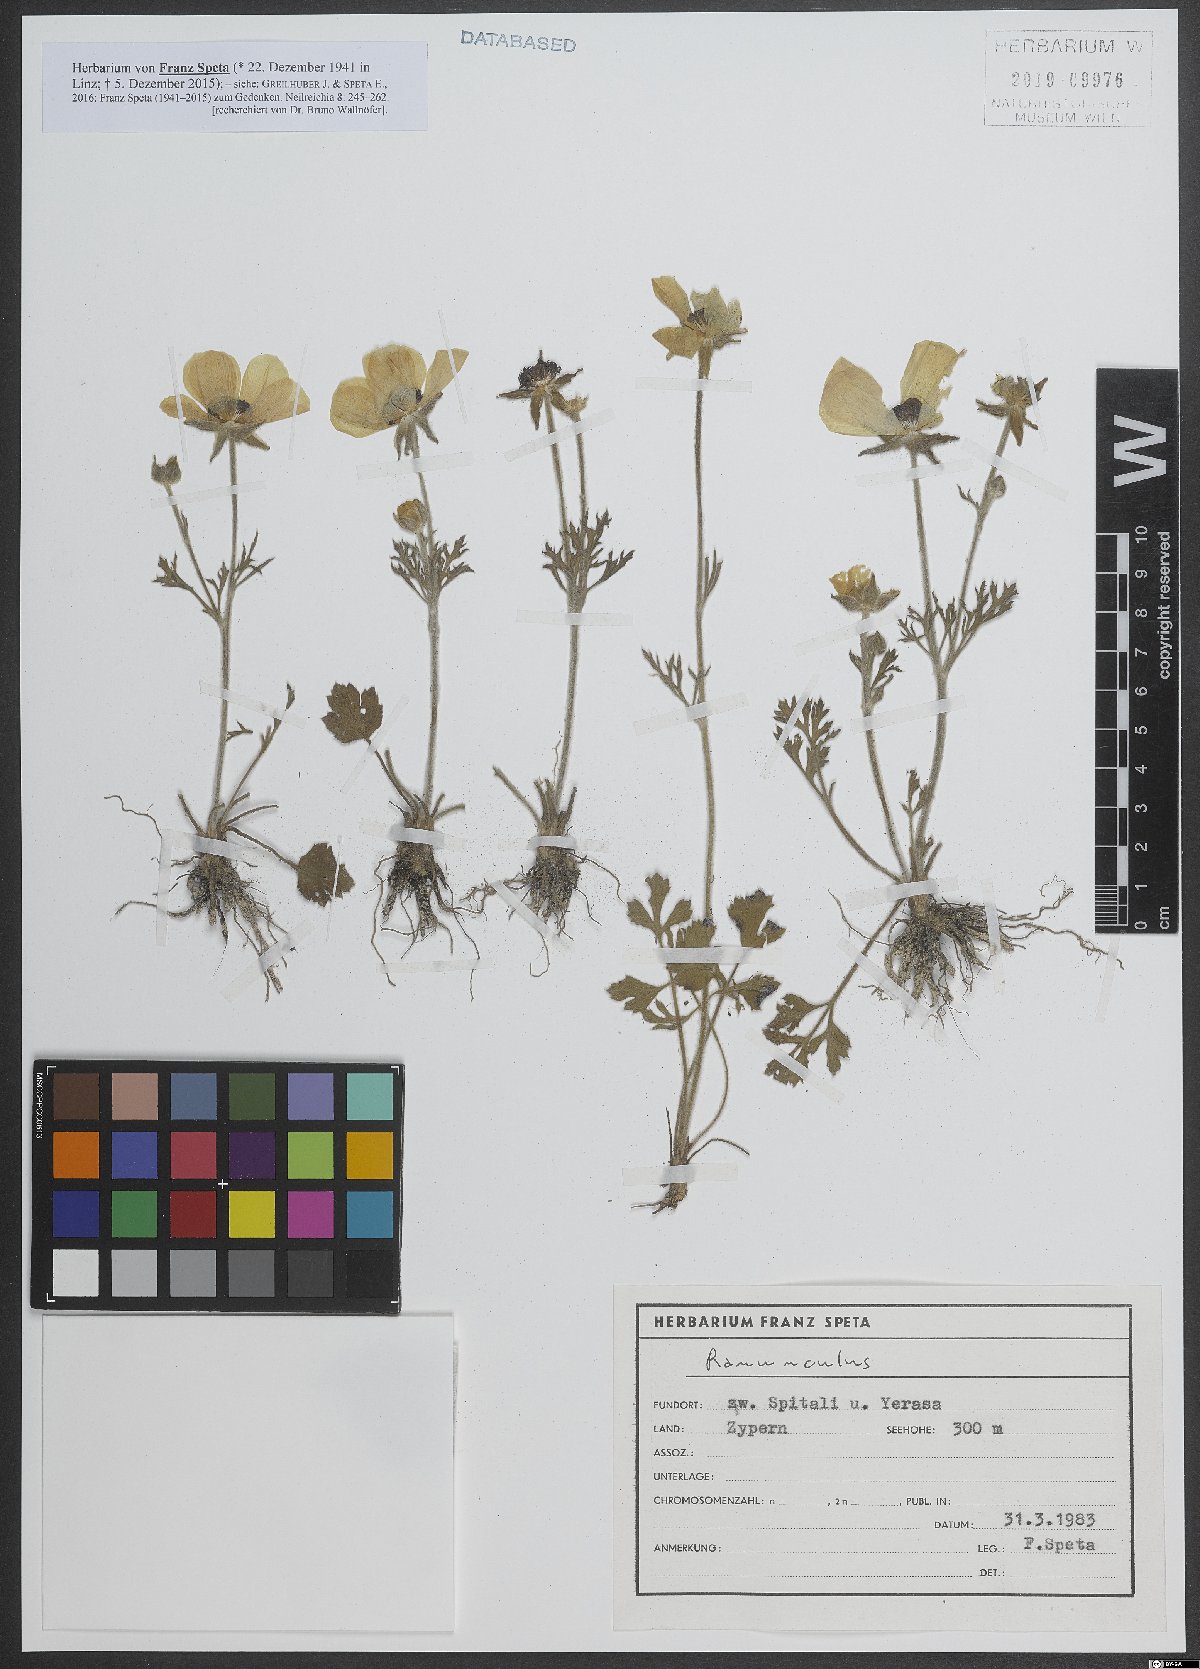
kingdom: Plantae
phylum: Tracheophyta
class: Magnoliopsida
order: Ranunculales
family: Ranunculaceae
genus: Ranunculus
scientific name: Ranunculus
